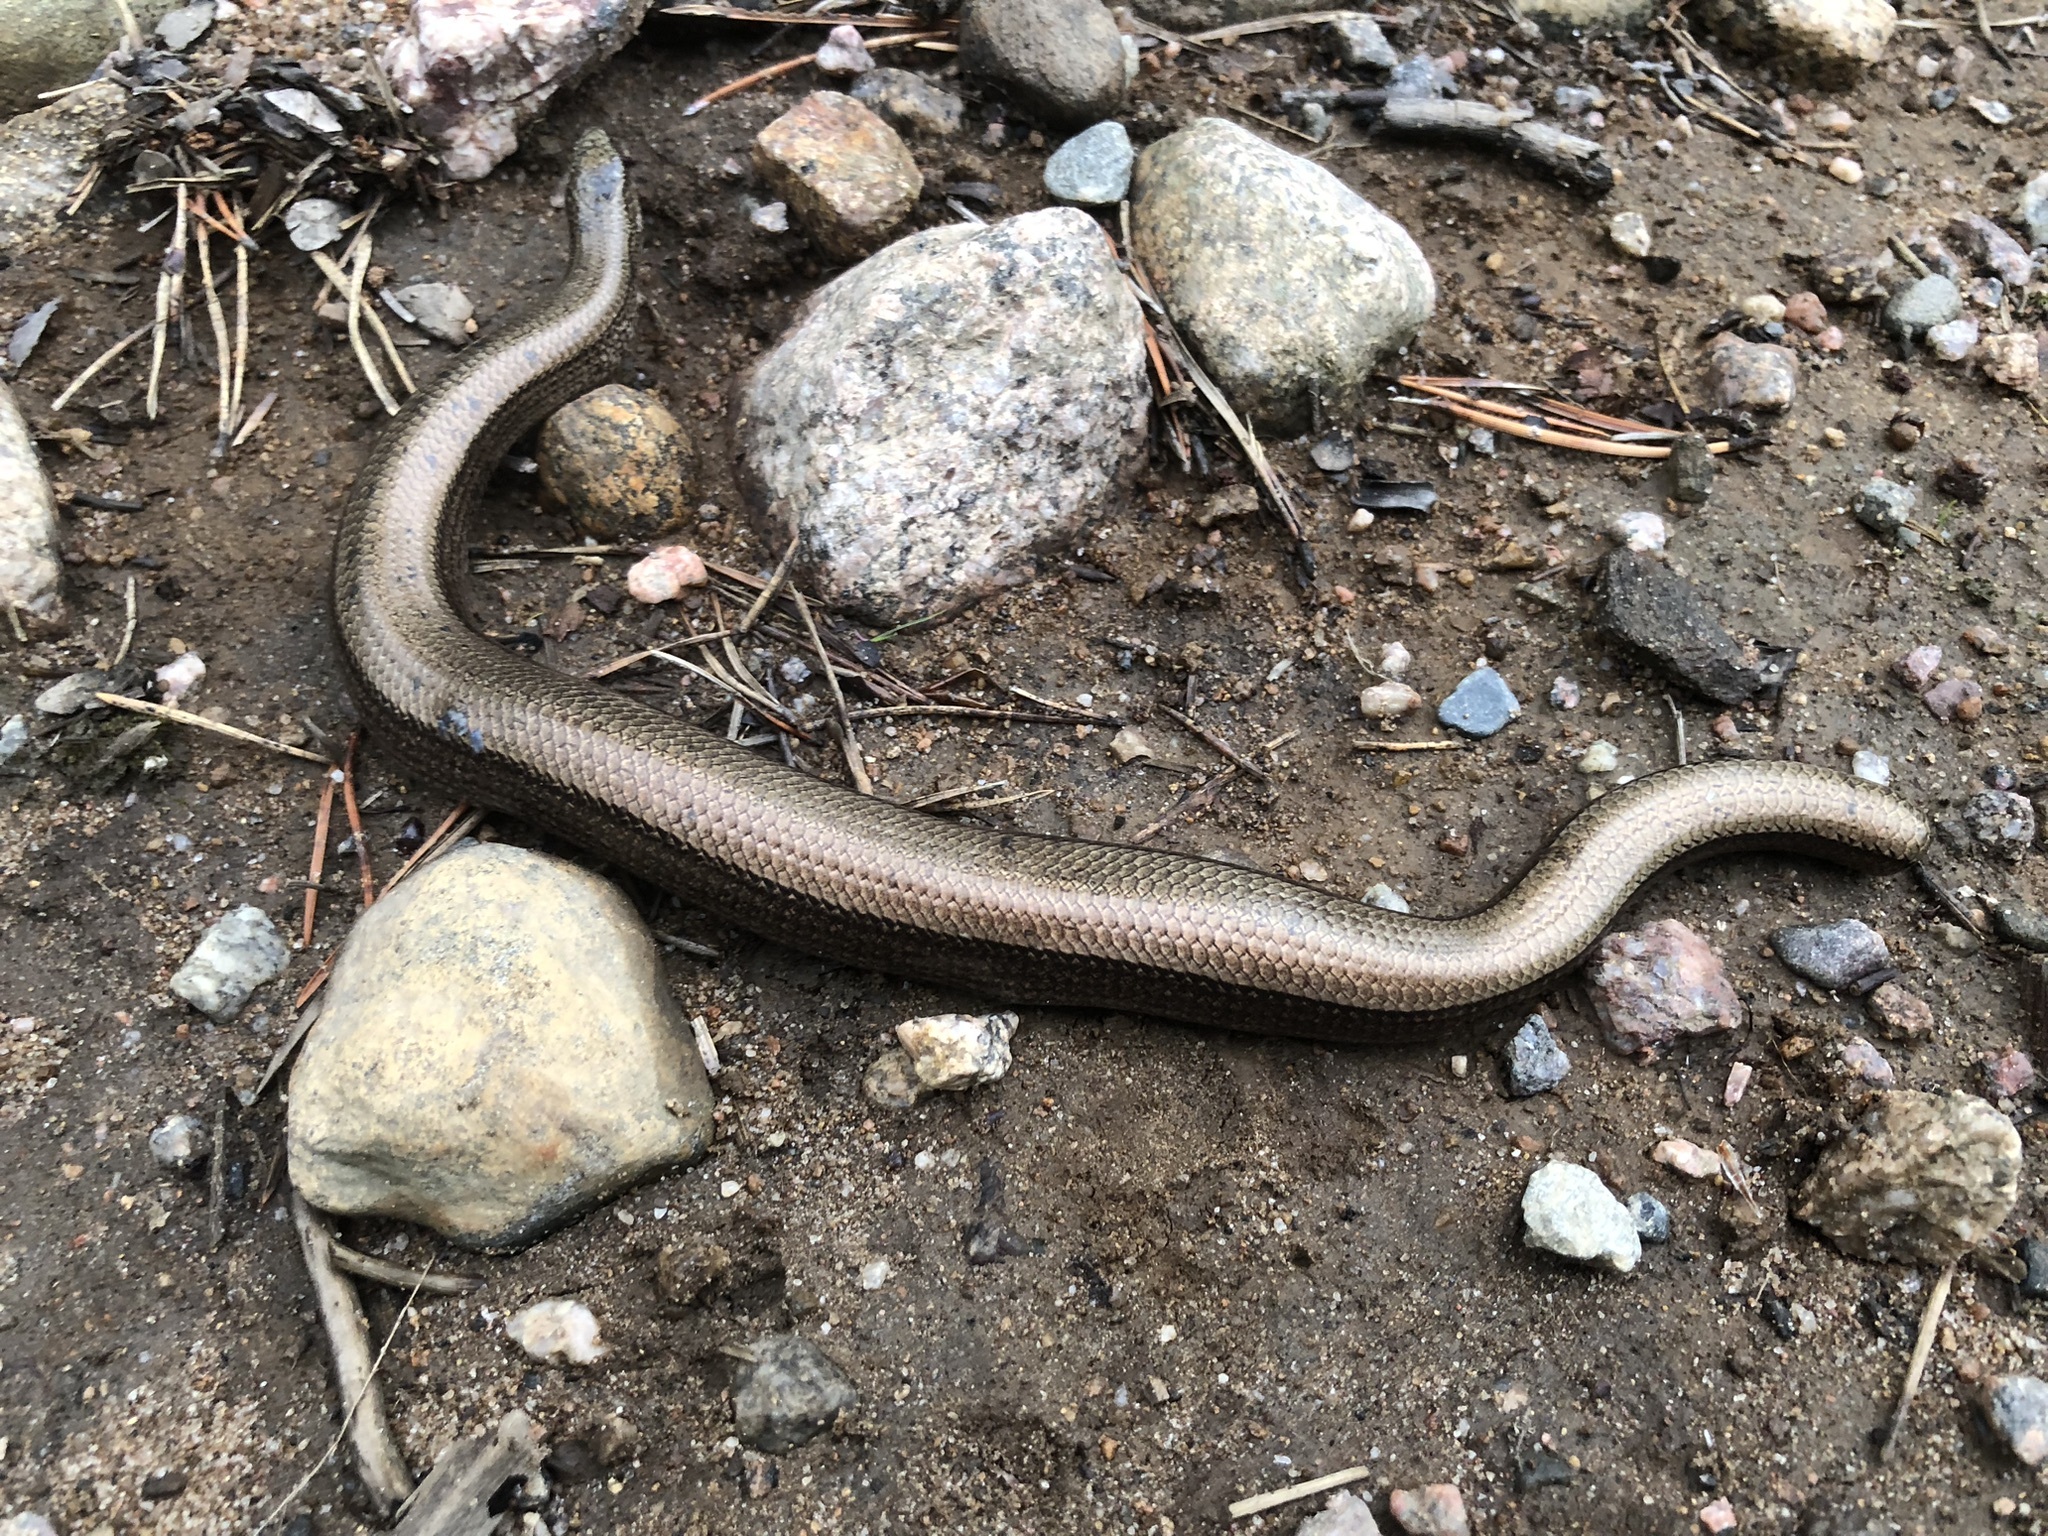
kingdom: Animalia
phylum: Chordata
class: Squamata
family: Anguidae
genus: Anguis
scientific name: Anguis colchica
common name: Slow worm
